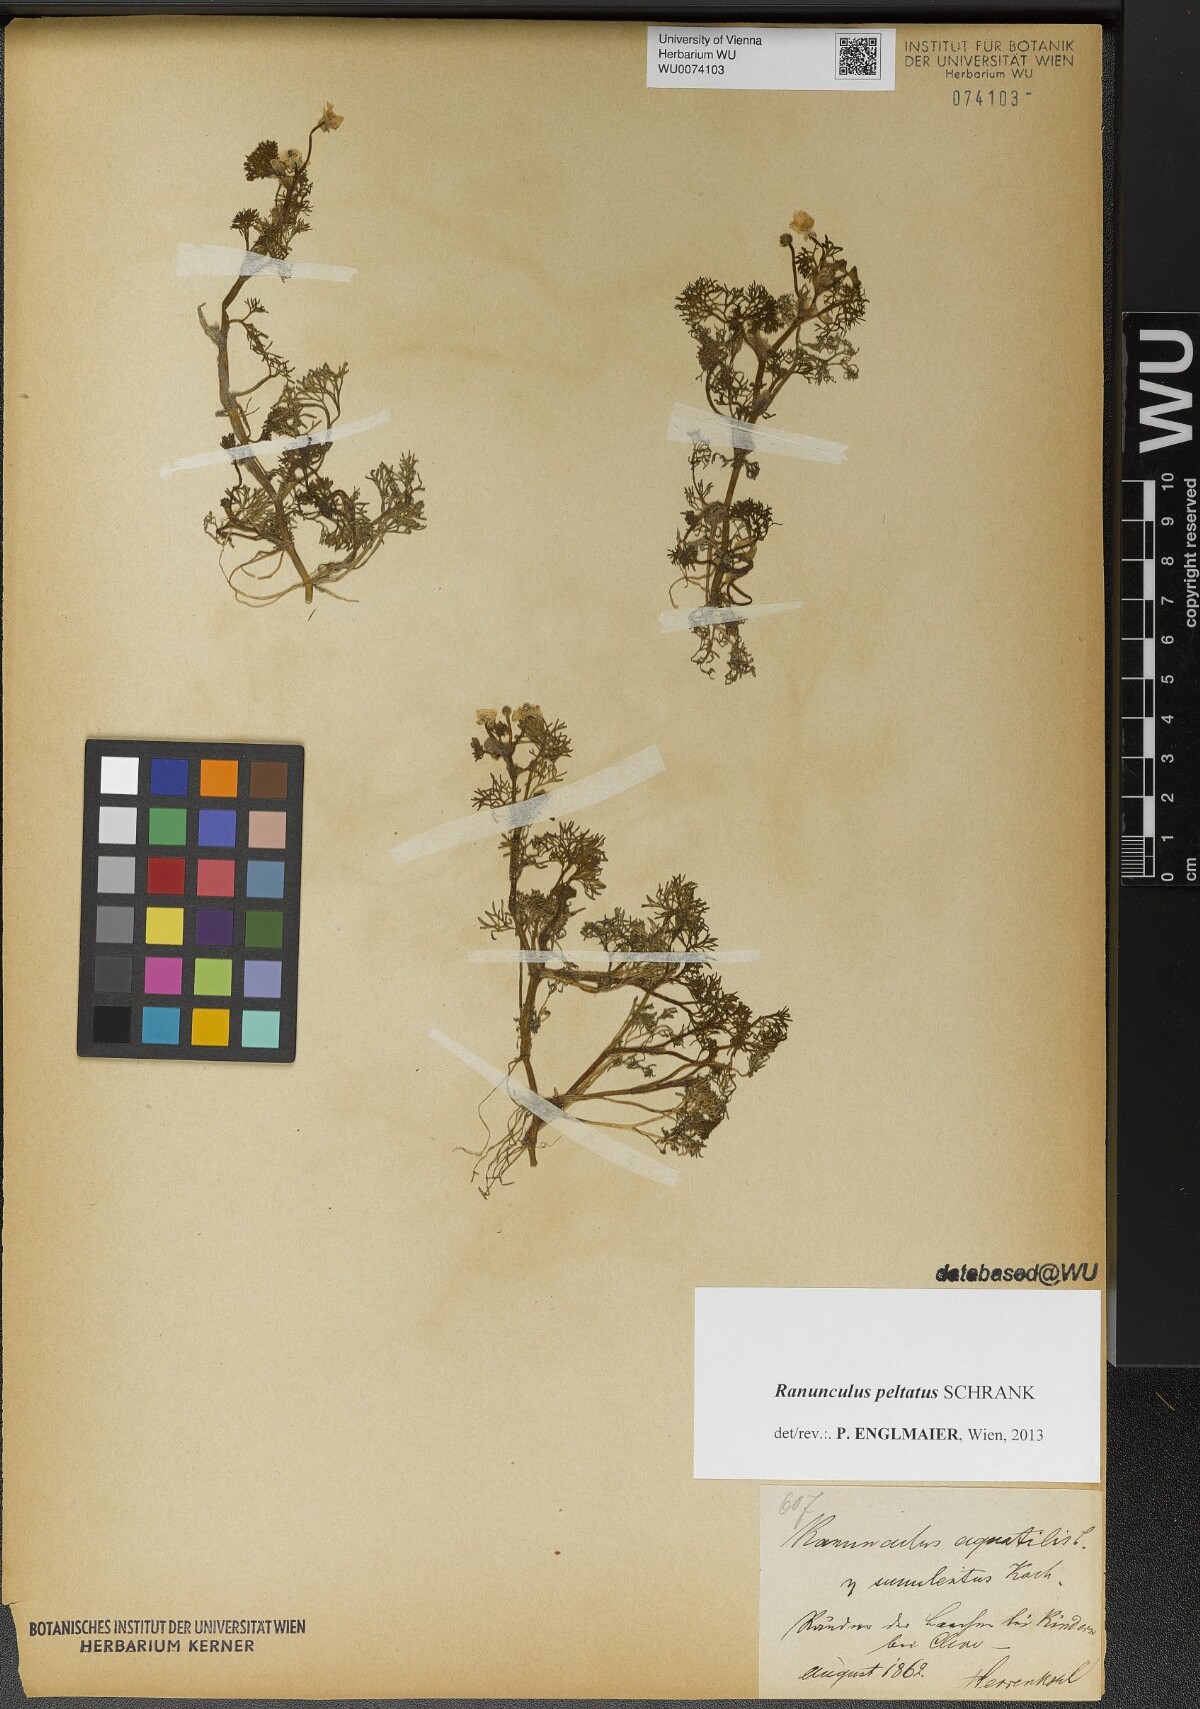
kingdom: Plantae
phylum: Tracheophyta
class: Magnoliopsida
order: Ranunculales
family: Ranunculaceae
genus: Ranunculus
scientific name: Ranunculus peltatus
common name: Pond water-crowfoot
